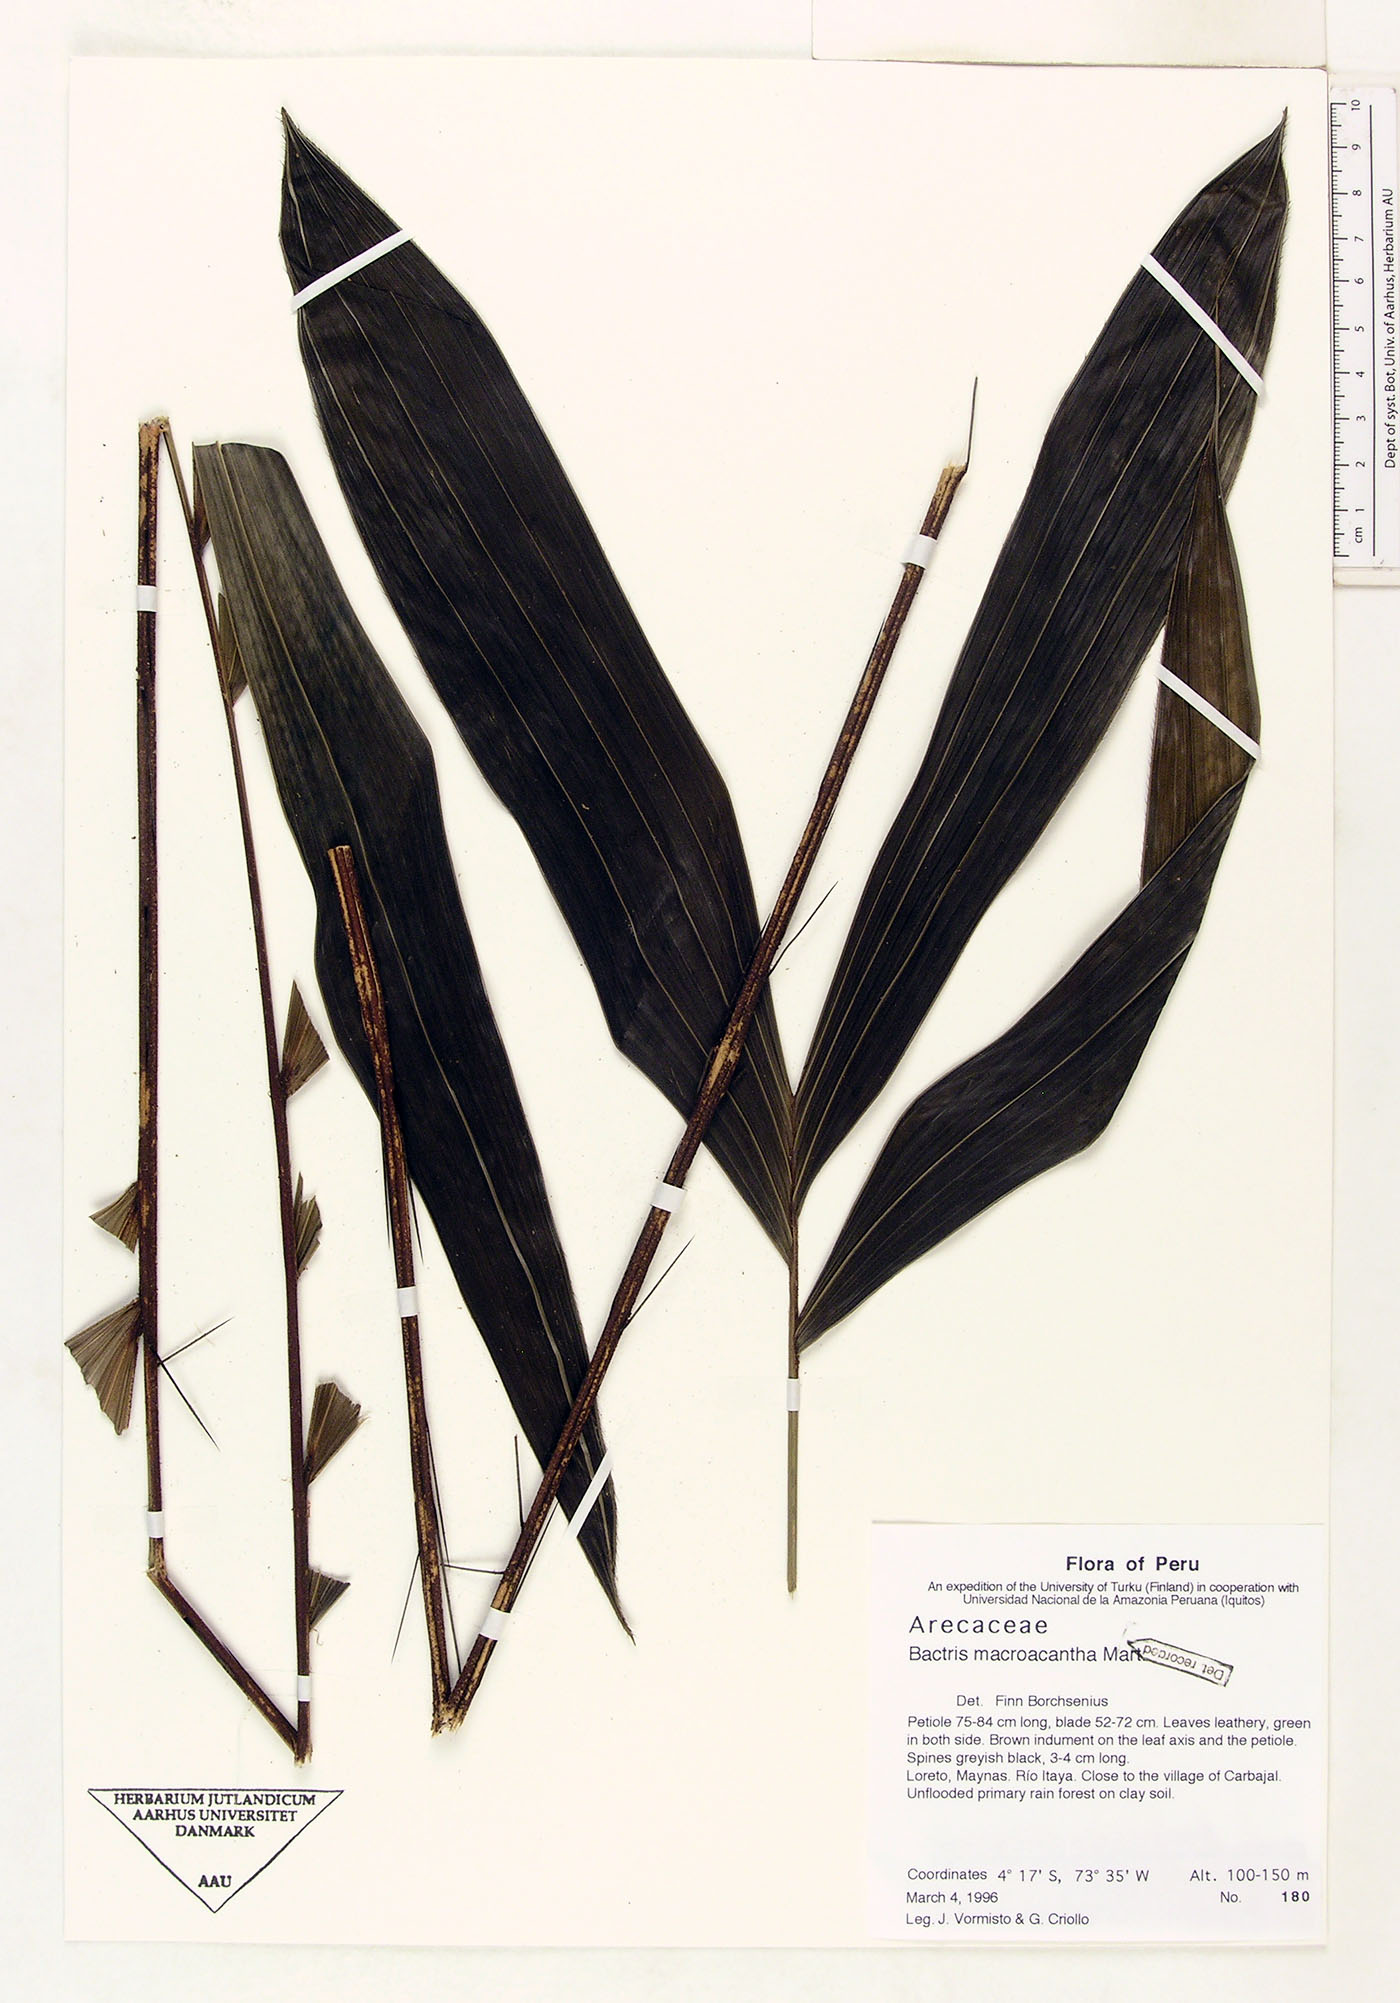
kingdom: Plantae
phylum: Tracheophyta
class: Liliopsida
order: Arecales
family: Arecaceae
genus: Bactris
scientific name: Bactris macroacantha
